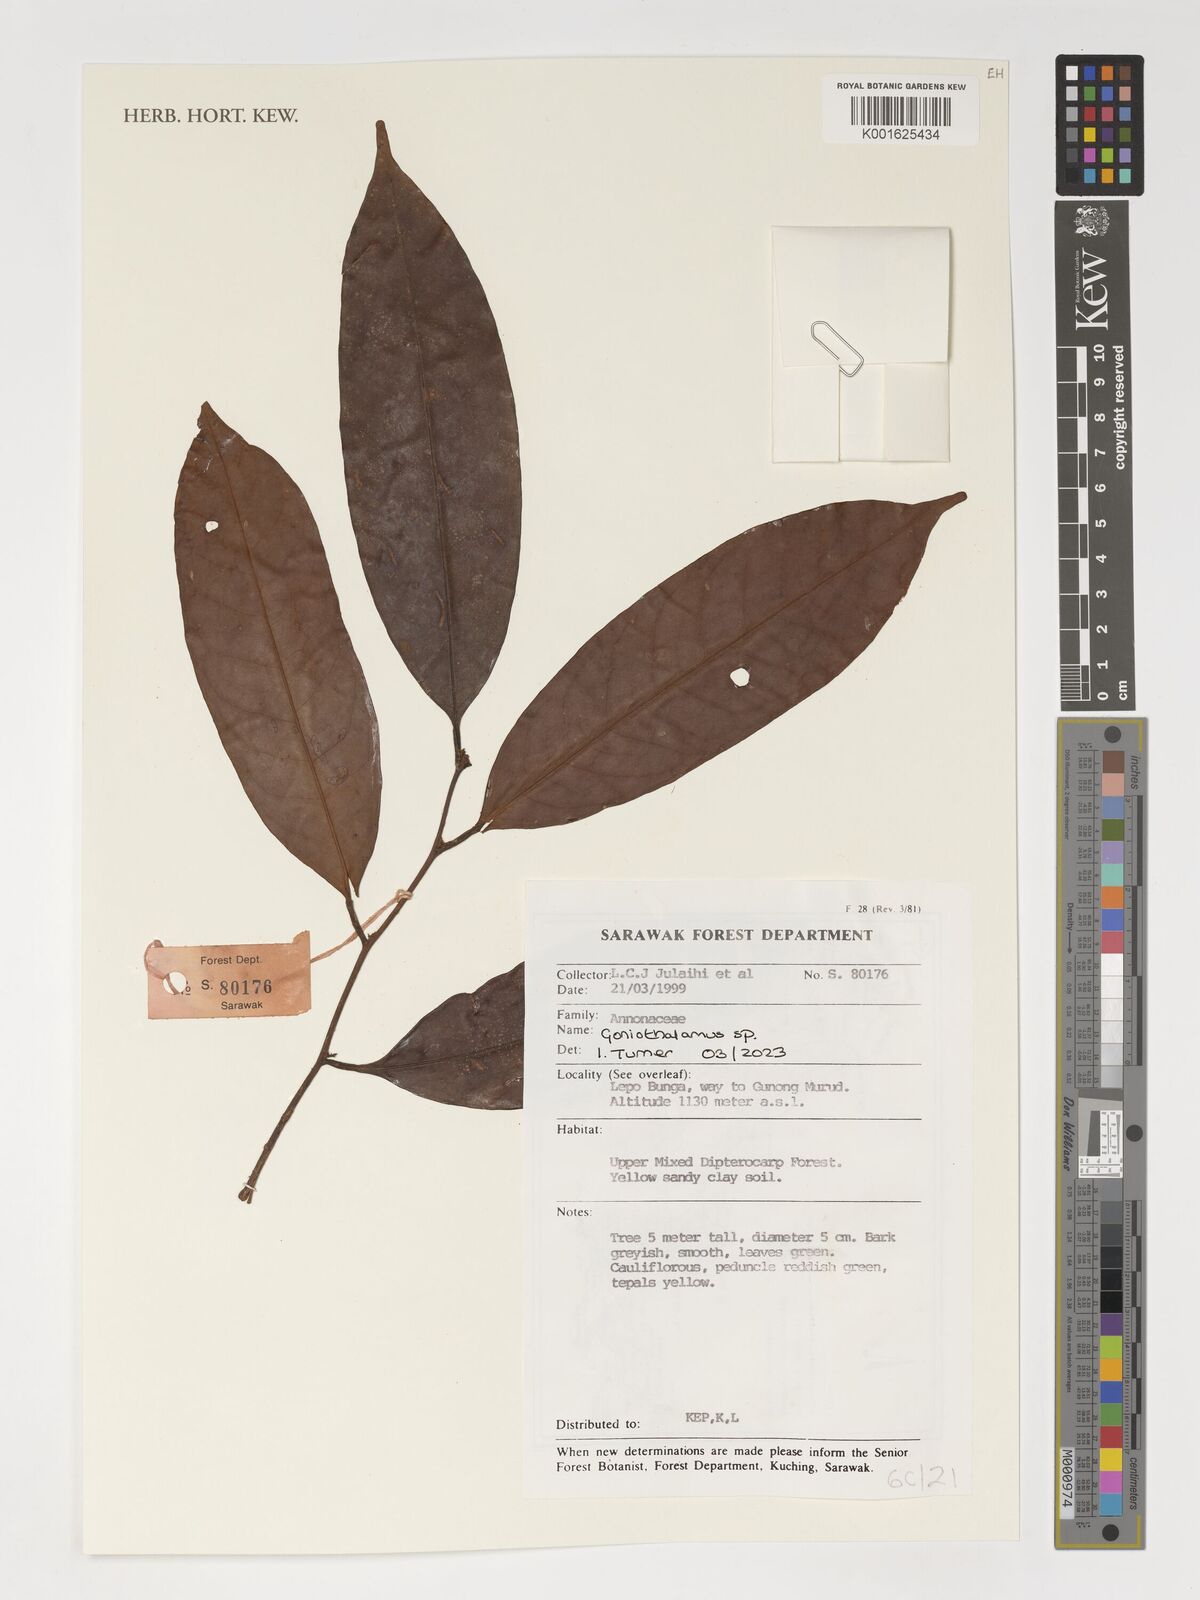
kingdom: Plantae
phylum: Tracheophyta
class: Magnoliopsida
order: Magnoliales
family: Annonaceae
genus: Goniothalamus
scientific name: Goniothalamus
